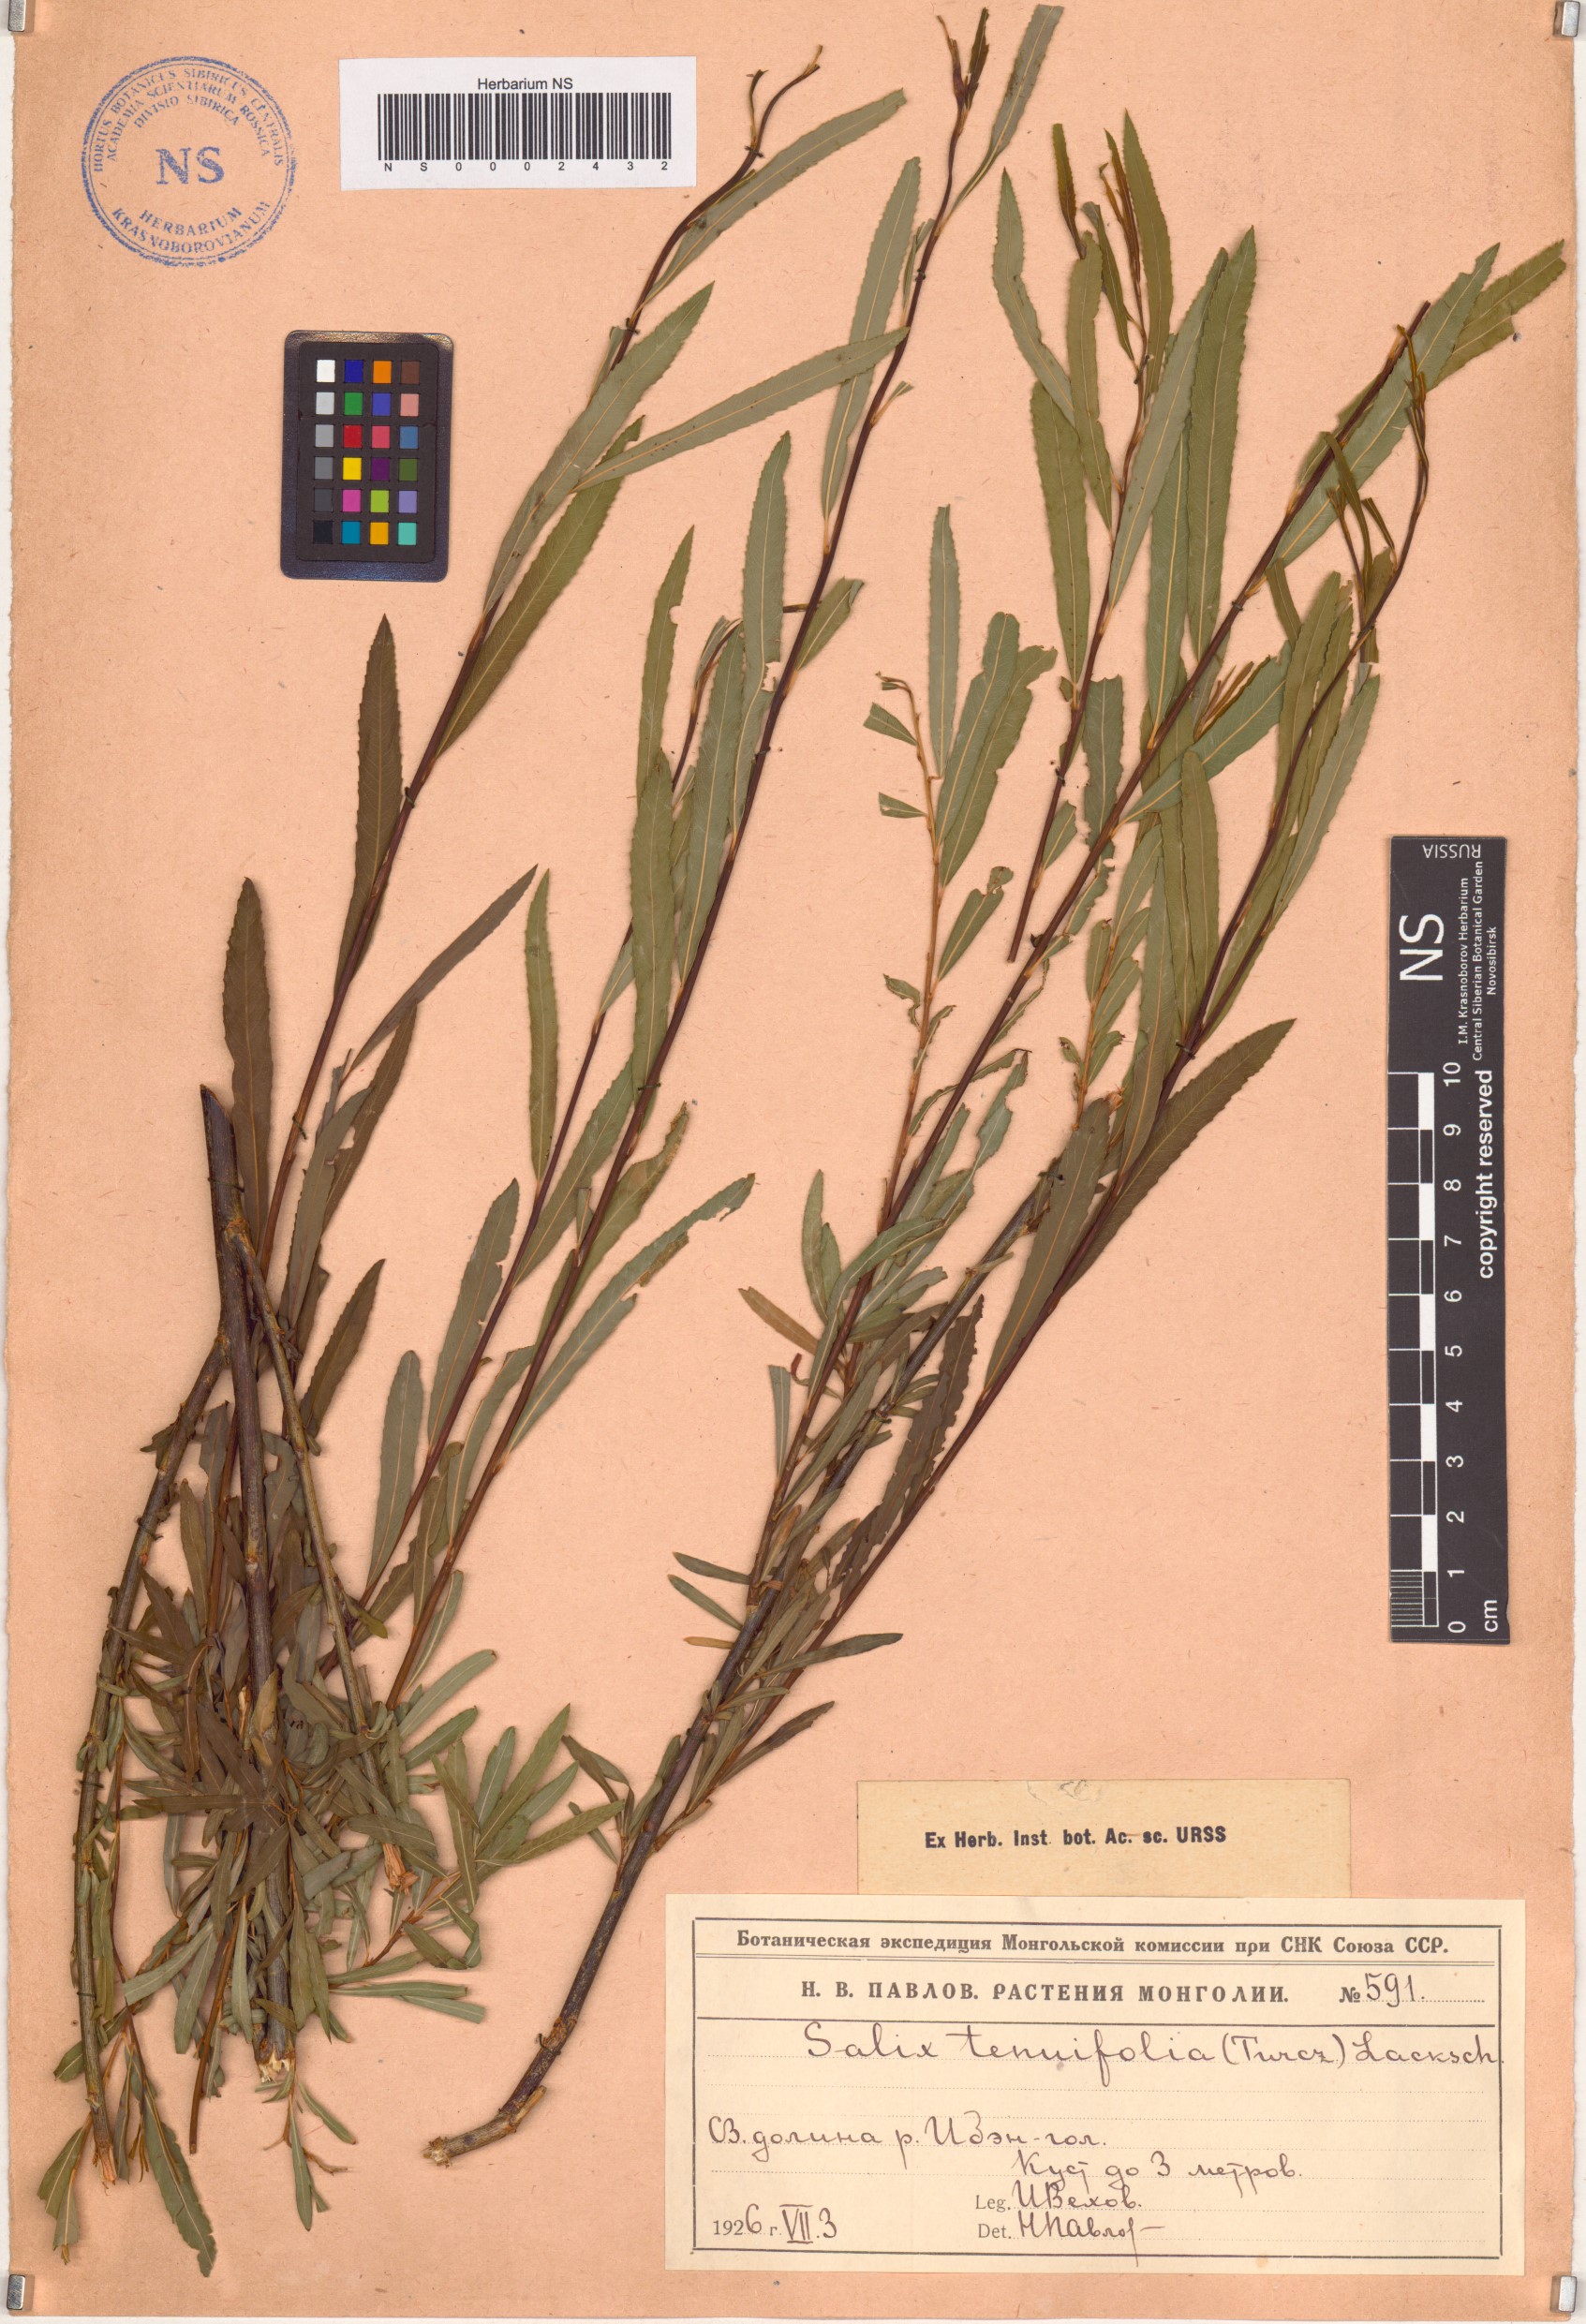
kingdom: Plantae
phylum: Tracheophyta
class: Magnoliopsida
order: Malpighiales
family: Salicaceae
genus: Salix
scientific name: Salix miyabeana
